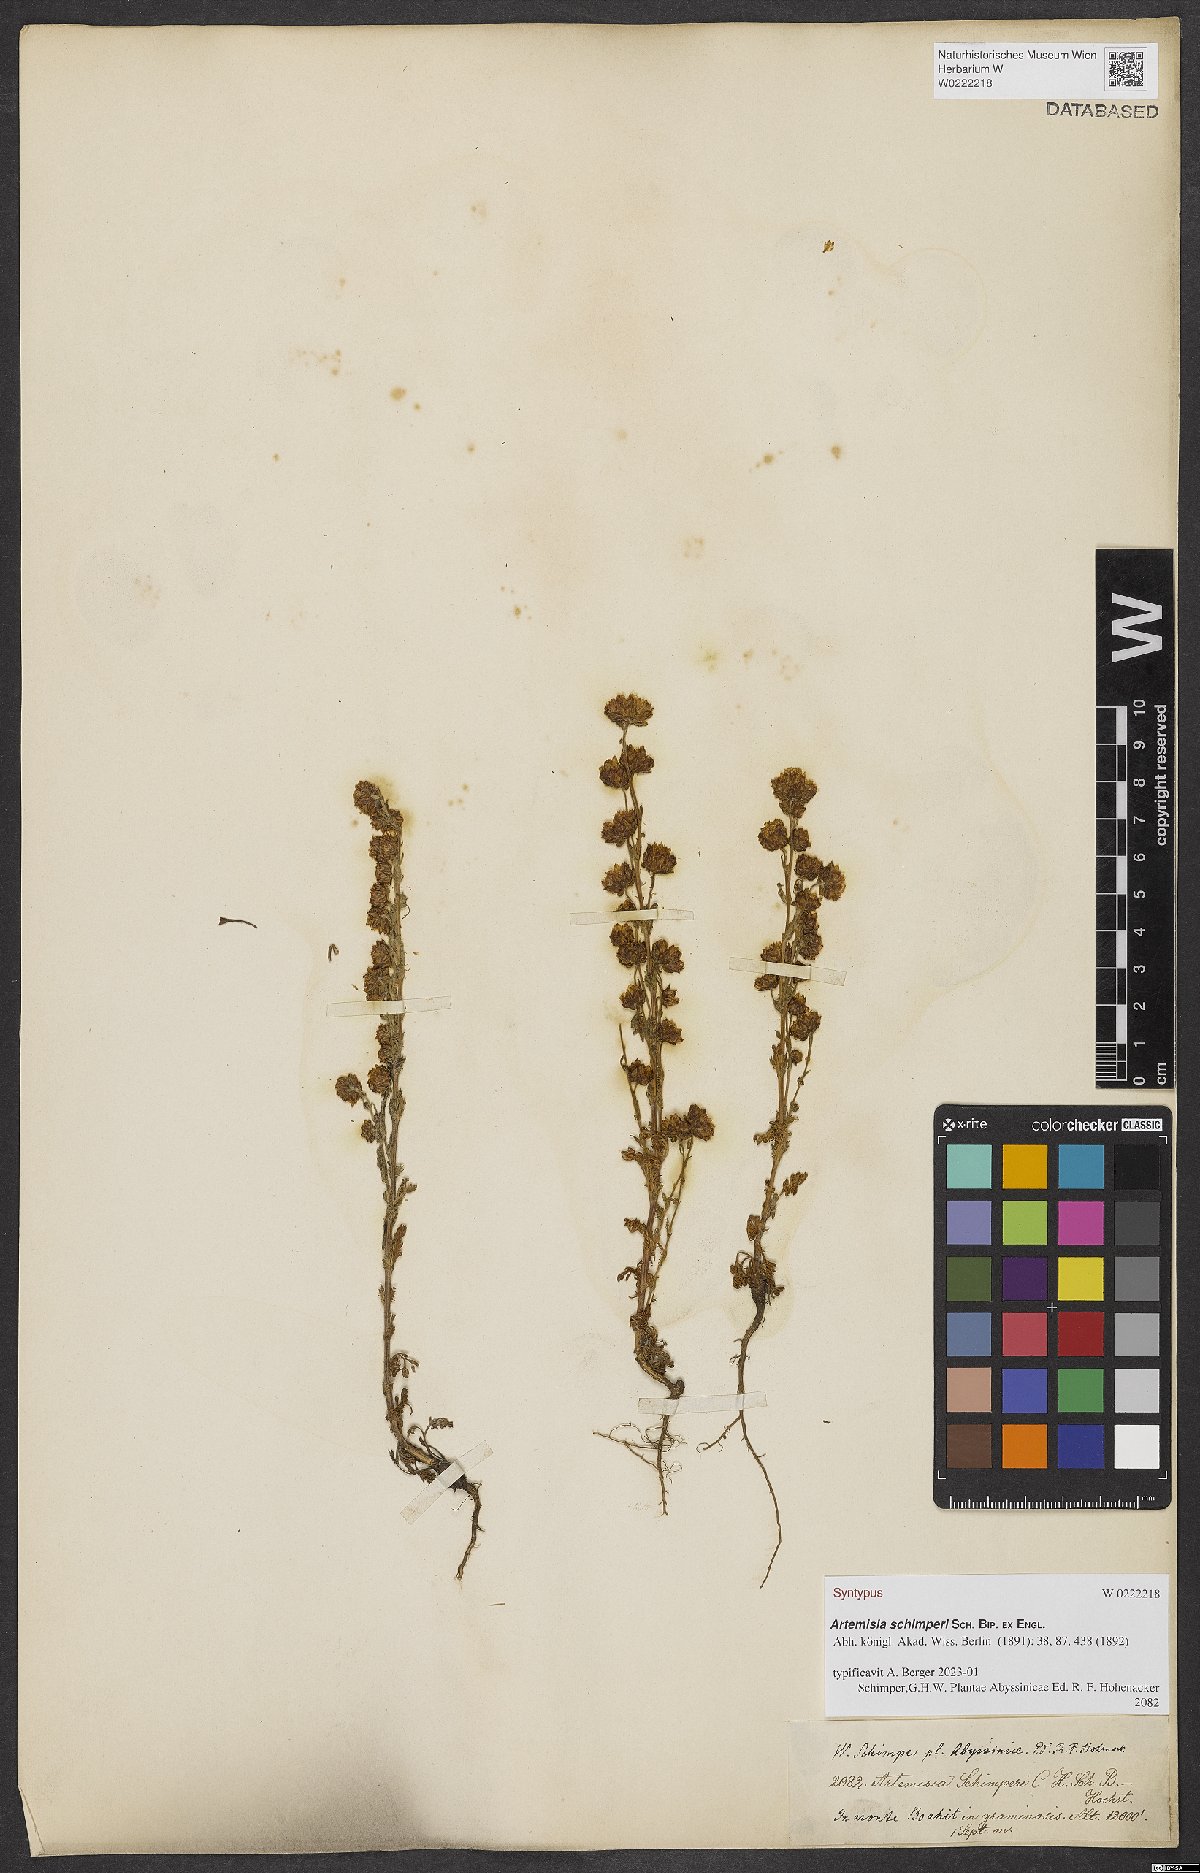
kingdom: Plantae
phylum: Tracheophyta
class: Magnoliopsida
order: Asterales
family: Asteraceae
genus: Artemisia
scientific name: Artemisia schimperi
